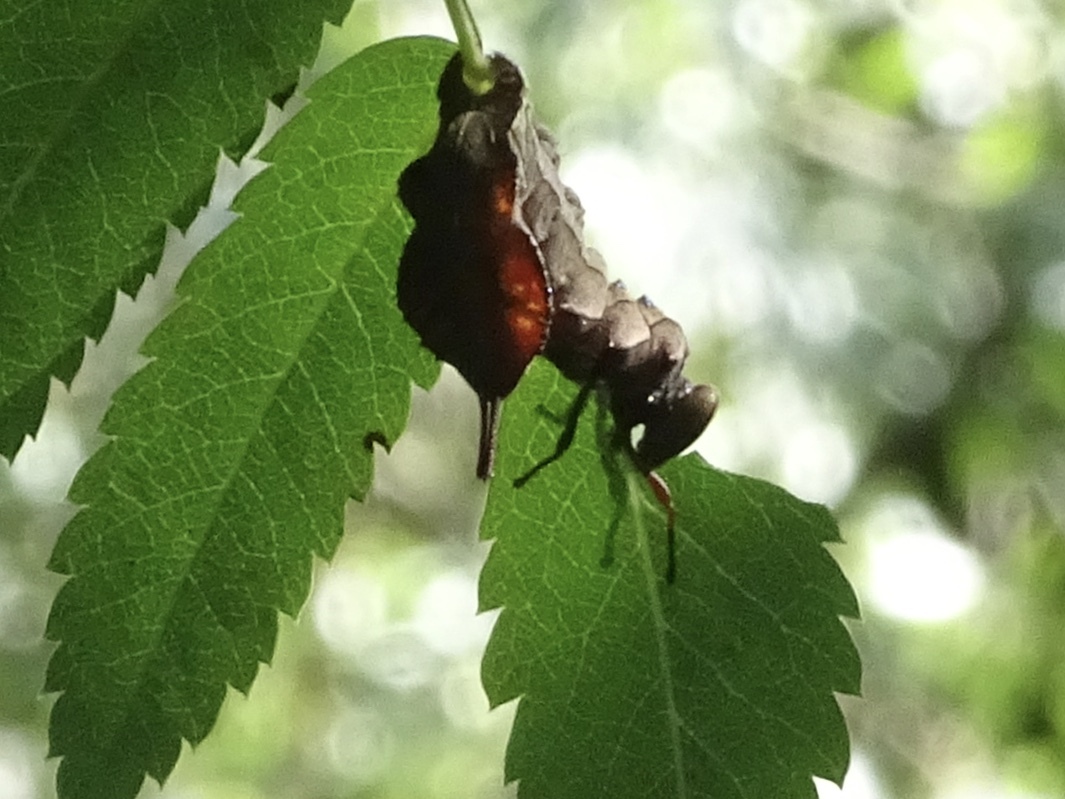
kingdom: Animalia
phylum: Arthropoda
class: Insecta
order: Lepidoptera
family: Notodontidae
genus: Stauropus
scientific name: Stauropus fagi
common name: Lobster moth
